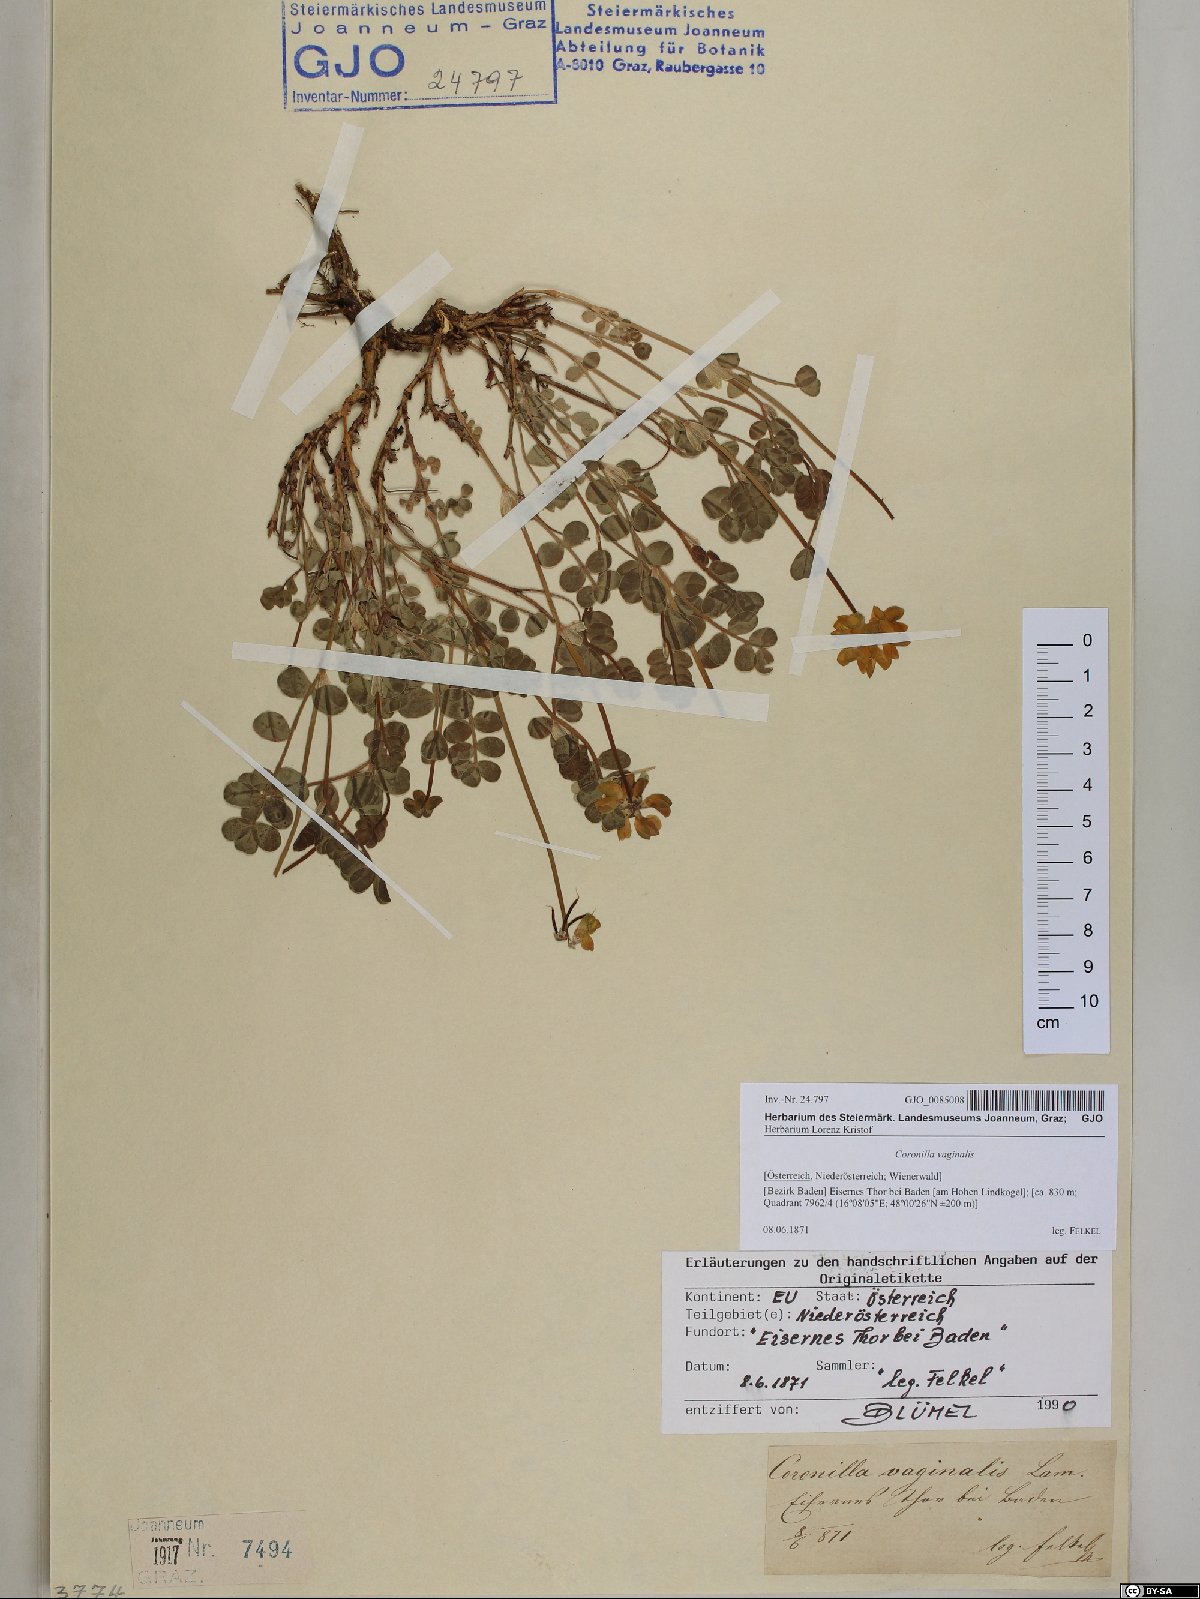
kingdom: Plantae
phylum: Tracheophyta
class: Magnoliopsida
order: Fabales
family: Fabaceae
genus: Coronilla
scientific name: Coronilla vaginalis
